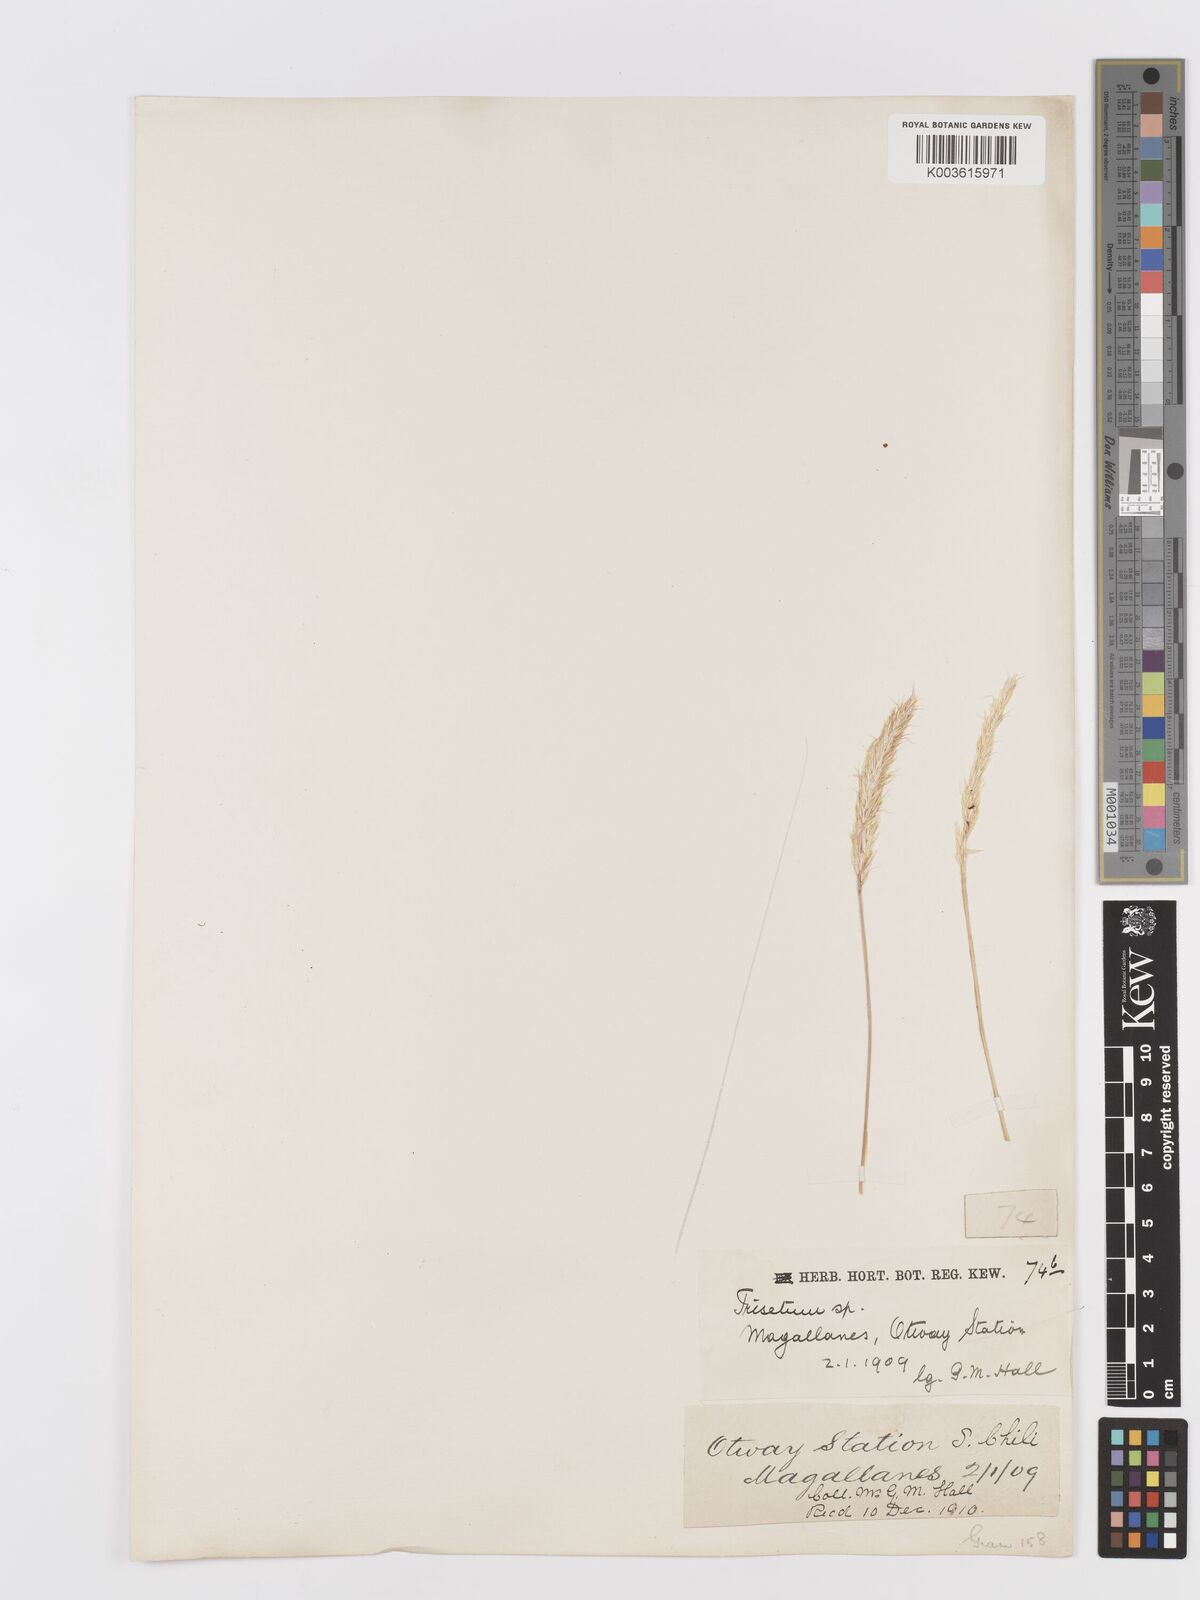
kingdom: Plantae
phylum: Tracheophyta
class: Liliopsida
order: Poales
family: Poaceae
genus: Trisetum
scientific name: Trisetum
